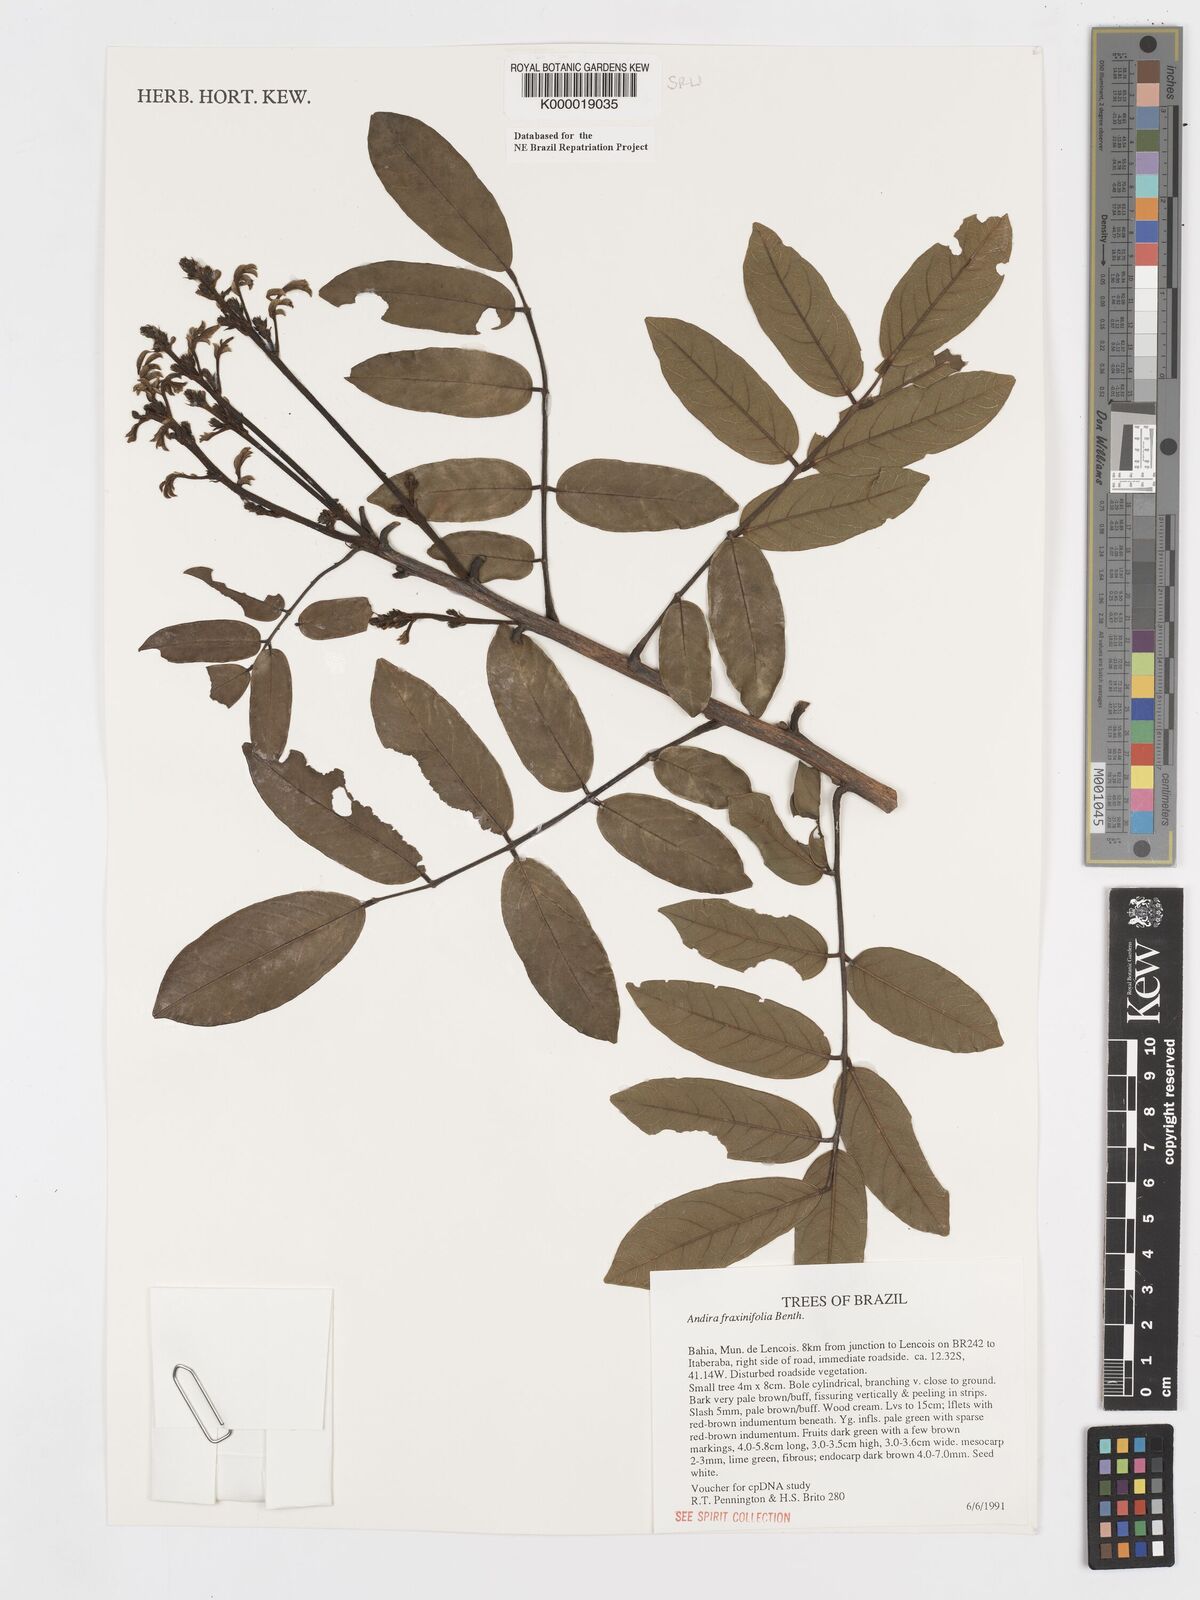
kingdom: Plantae
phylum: Tracheophyta
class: Magnoliopsida
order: Fabales
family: Fabaceae
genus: Andira
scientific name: Andira fraxinifolia
